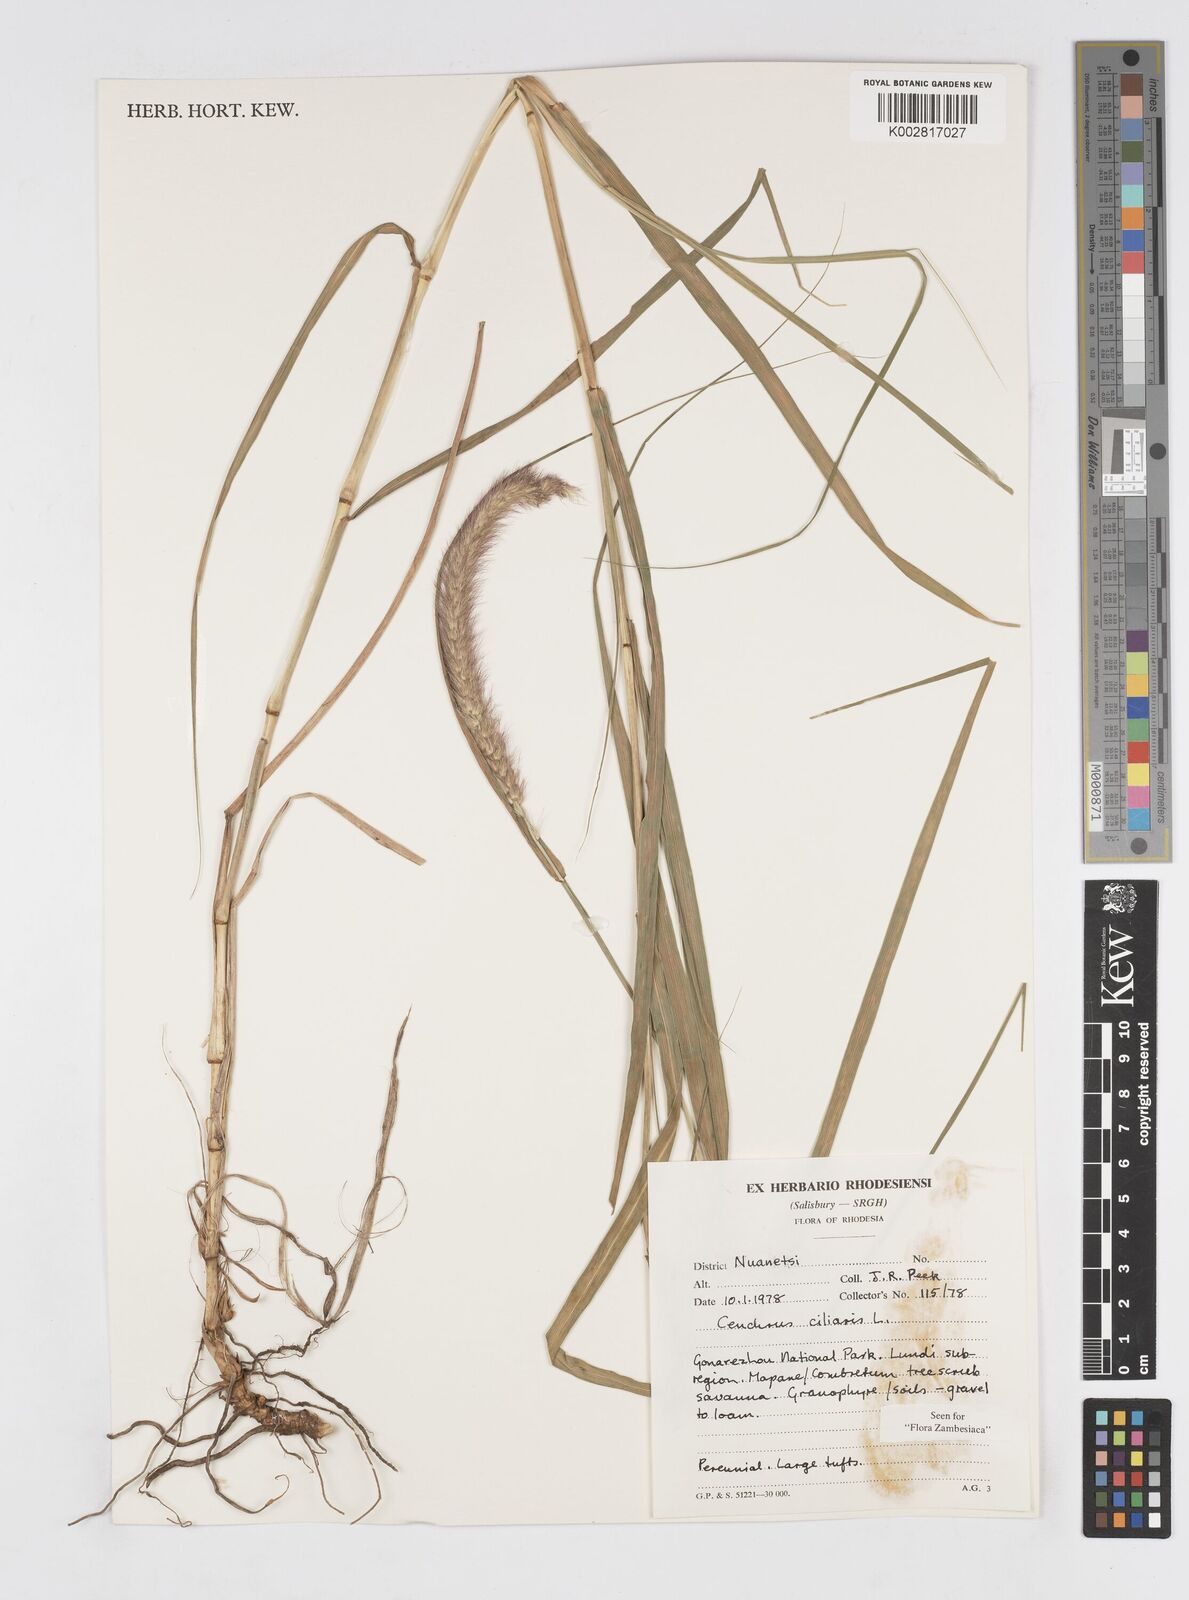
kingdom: Plantae
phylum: Tracheophyta
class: Liliopsida
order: Poales
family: Poaceae
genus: Cenchrus
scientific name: Cenchrus ciliaris
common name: Buffelgrass
